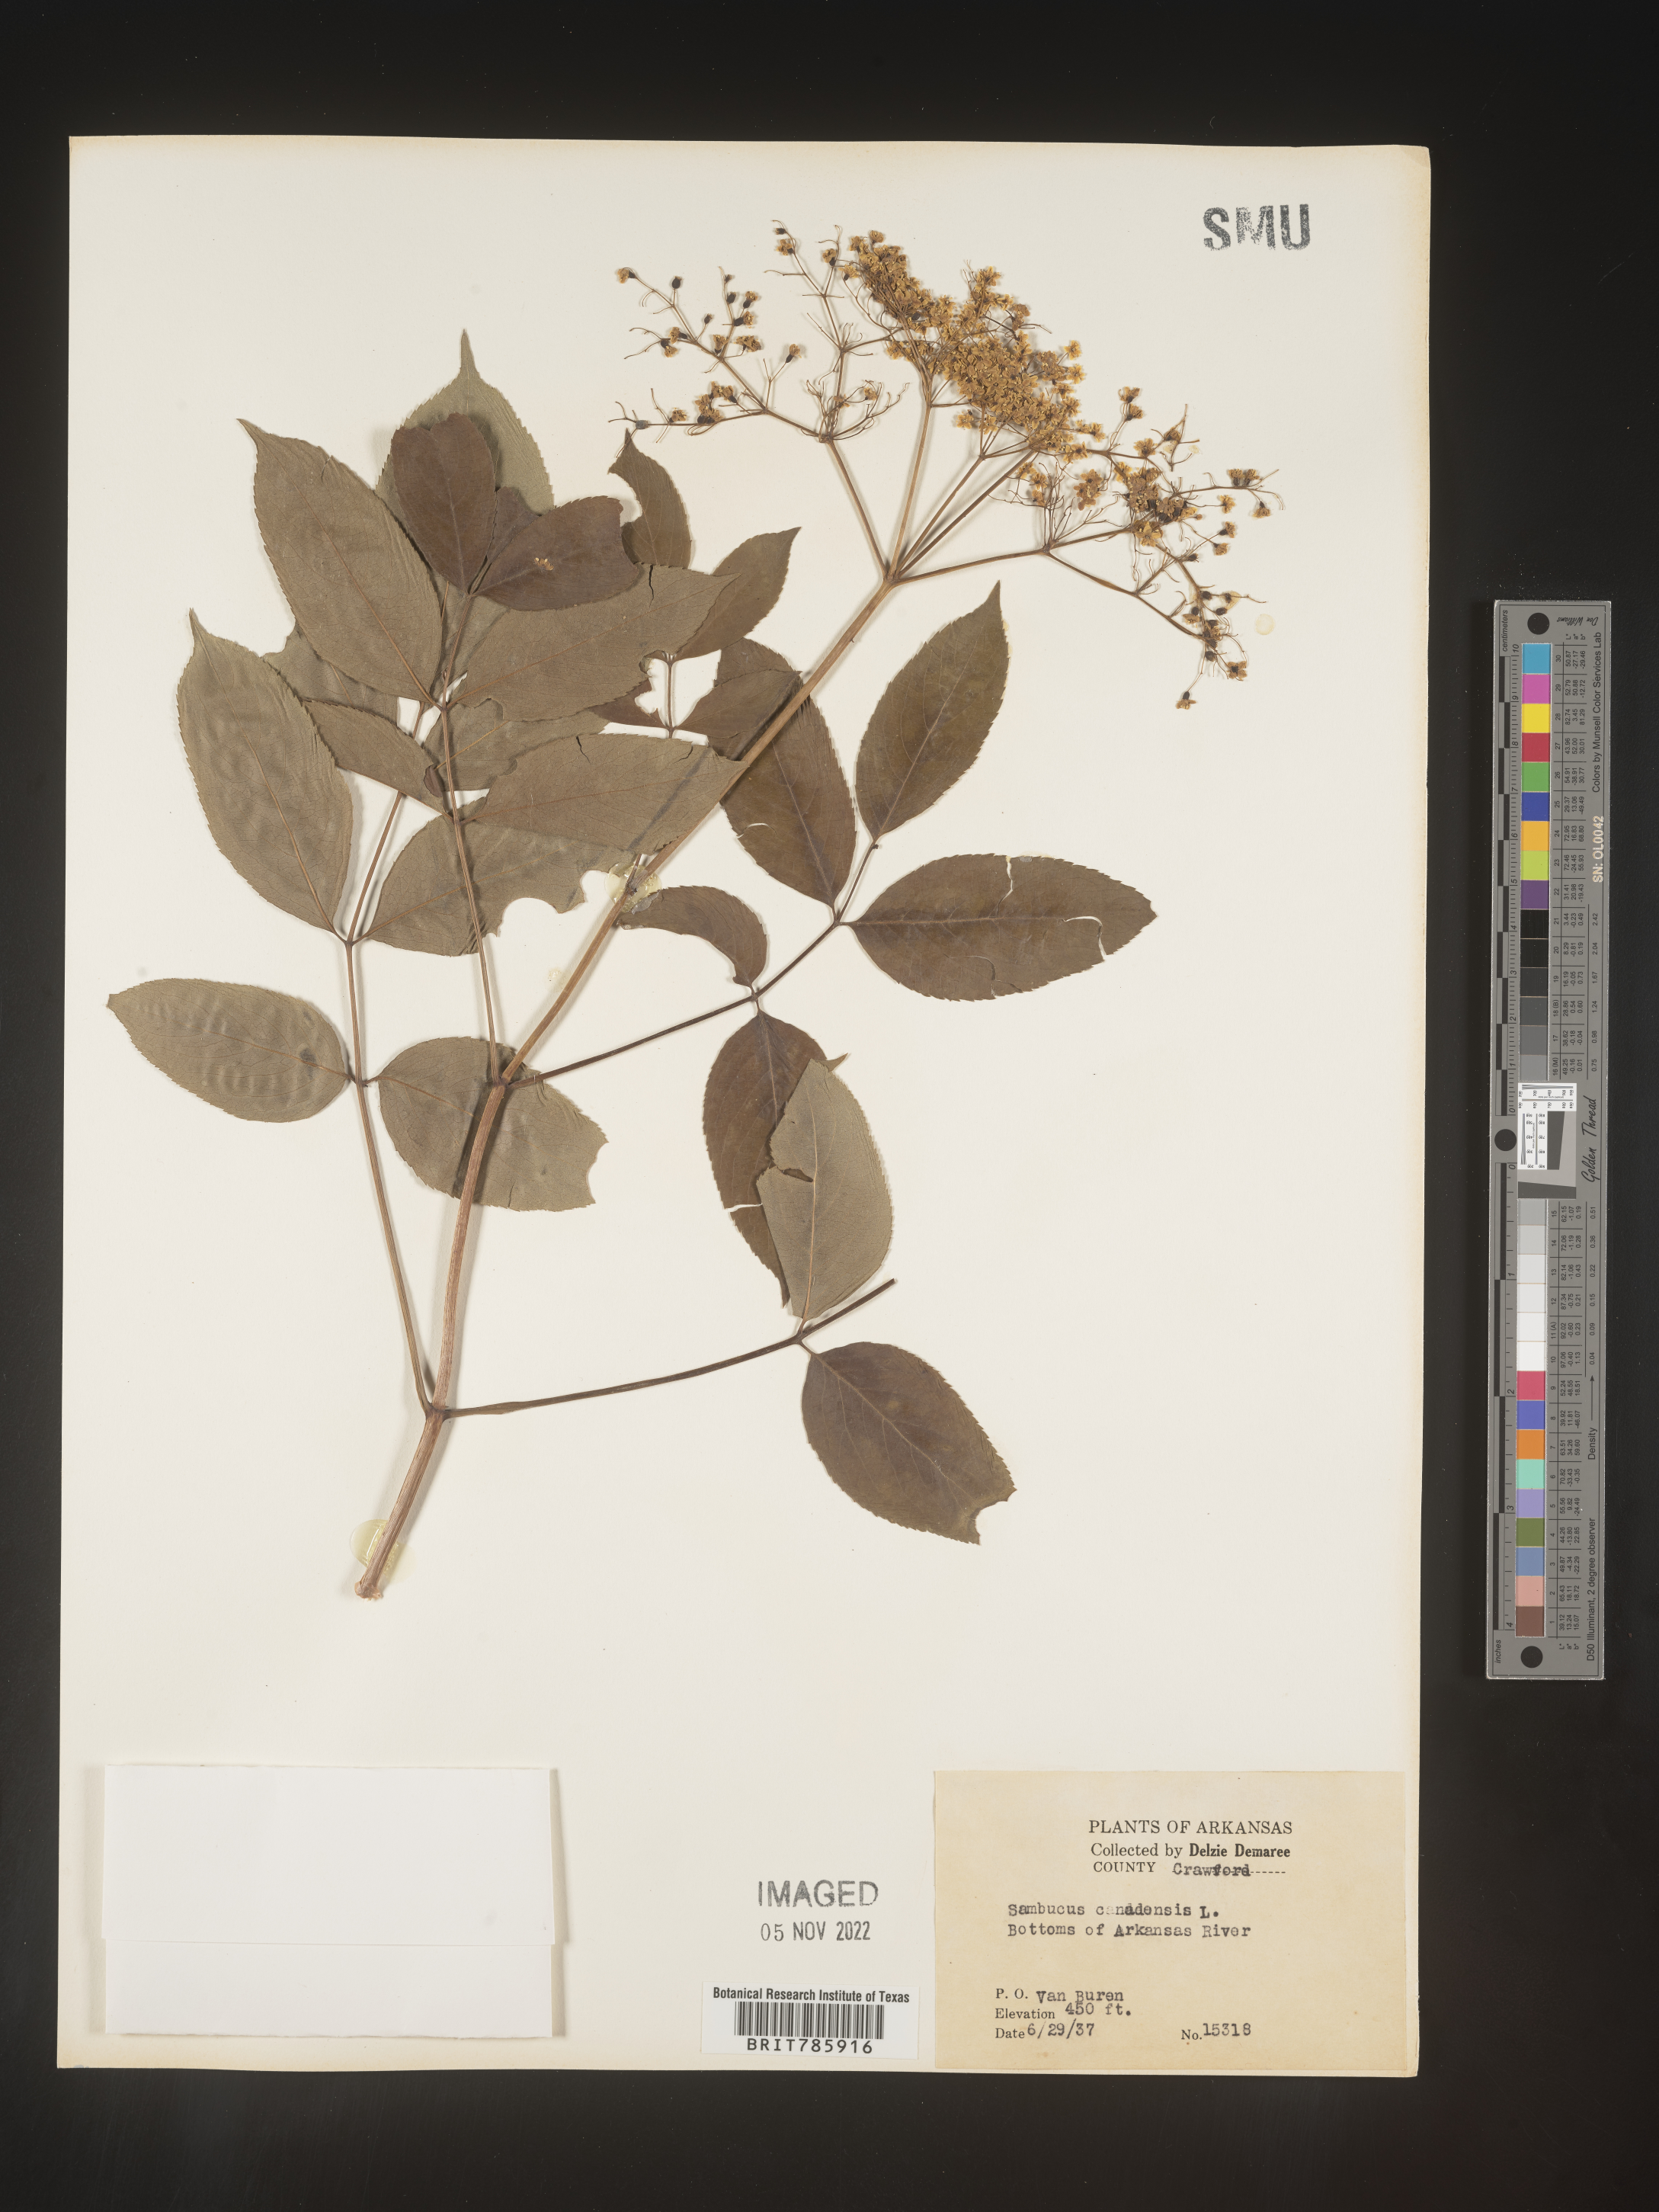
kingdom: Plantae
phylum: Tracheophyta
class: Magnoliopsida
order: Dipsacales
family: Viburnaceae
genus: Sambucus
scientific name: Sambucus nigra
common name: Elder
